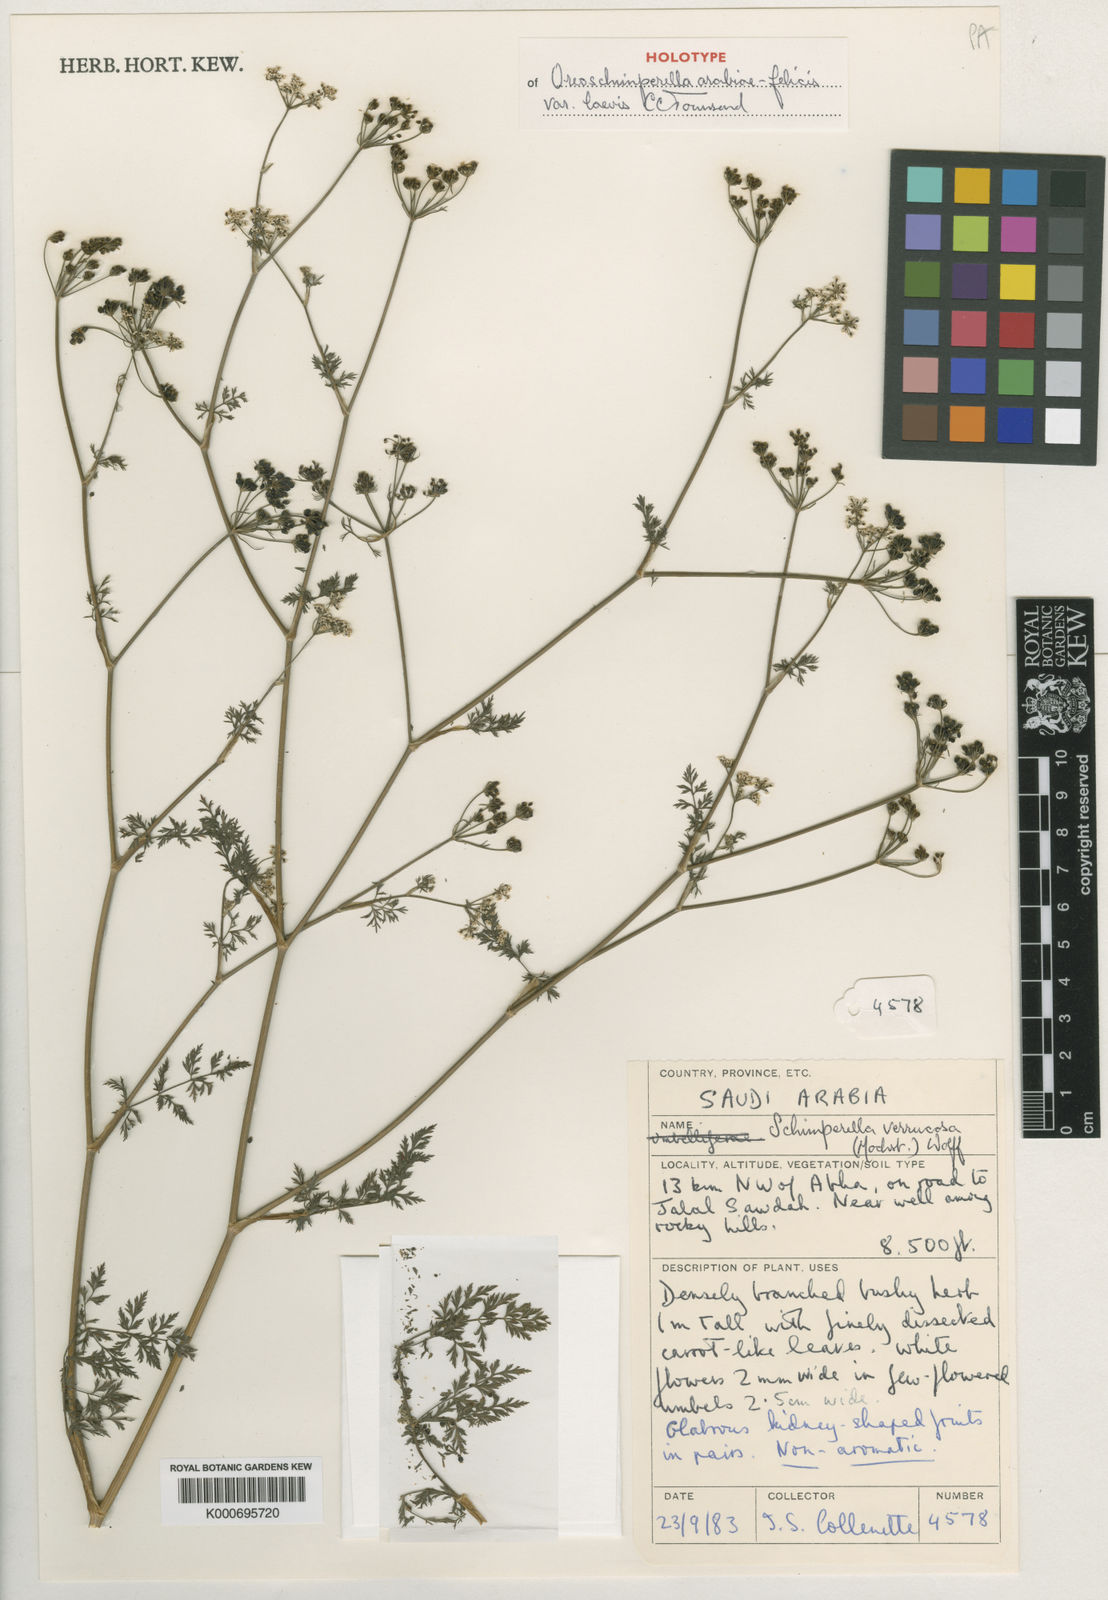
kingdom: Plantae
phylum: Tracheophyta
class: Magnoliopsida
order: Apiales
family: Apiaceae
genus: Oreoschimperella
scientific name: Oreoschimperella arabiae-felicis
